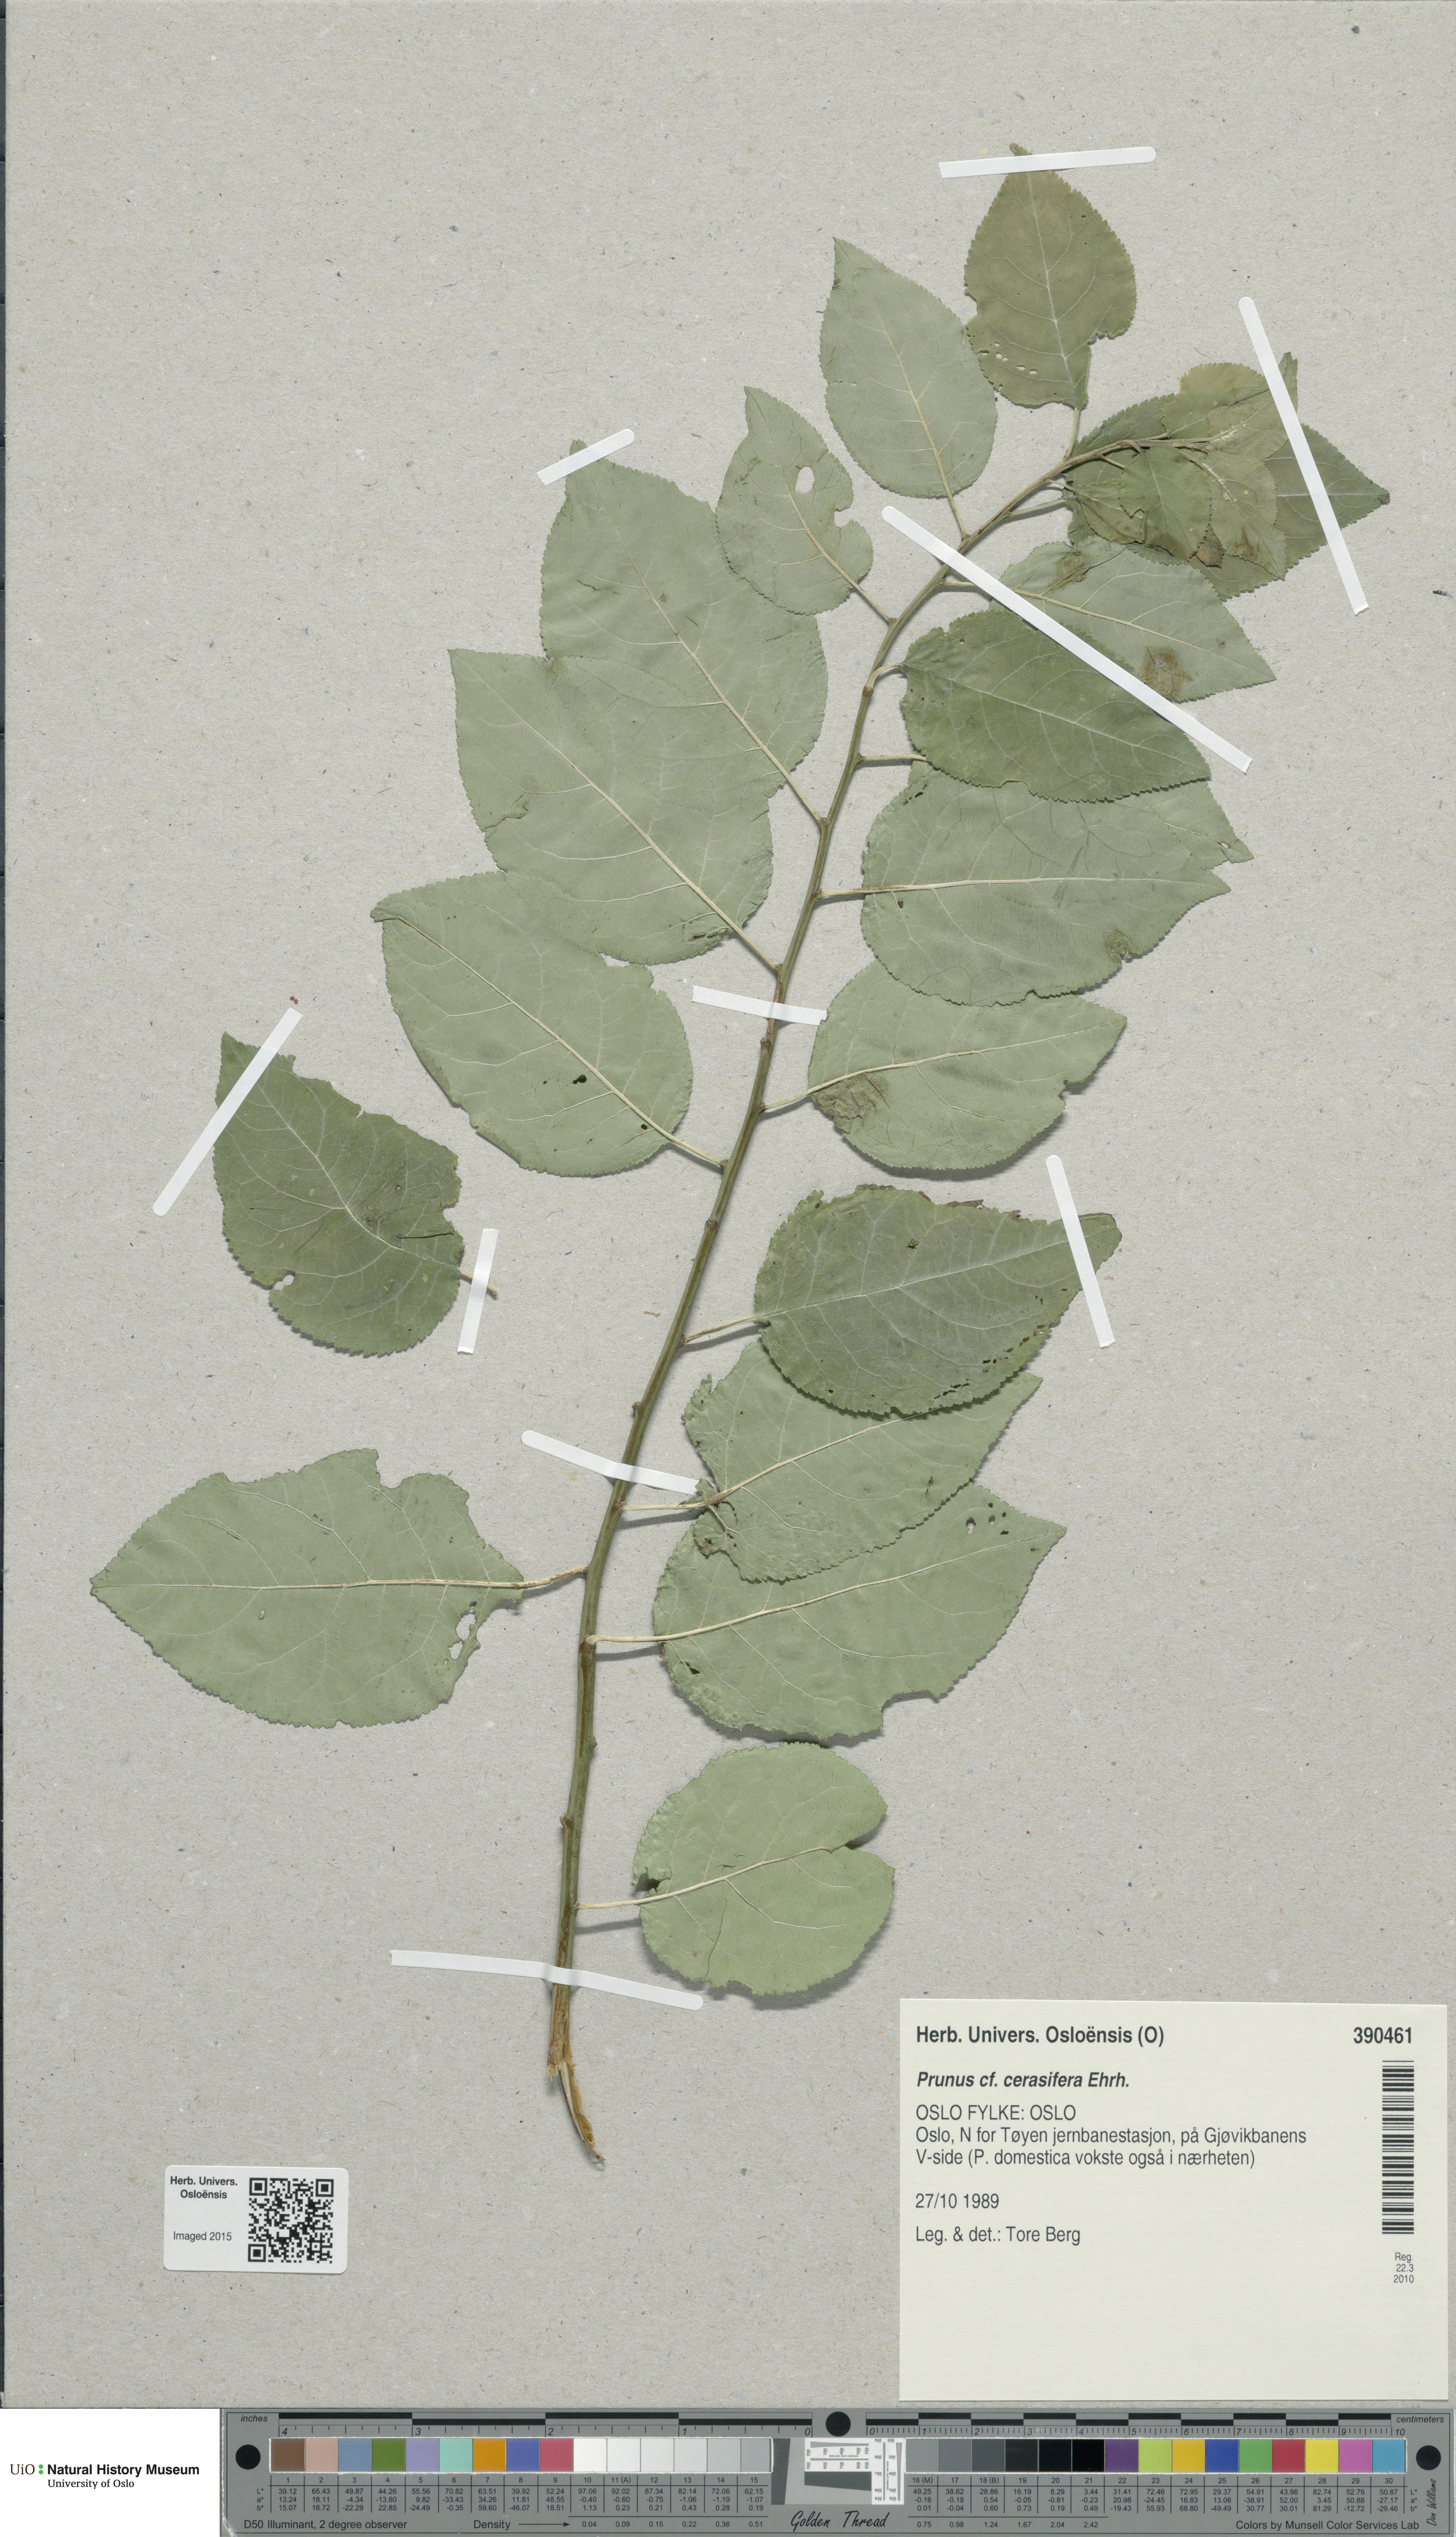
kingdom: Plantae
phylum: Tracheophyta
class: Magnoliopsida
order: Rosales
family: Rosaceae
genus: Prunus
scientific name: Prunus cerasifera
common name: Cherry plum
